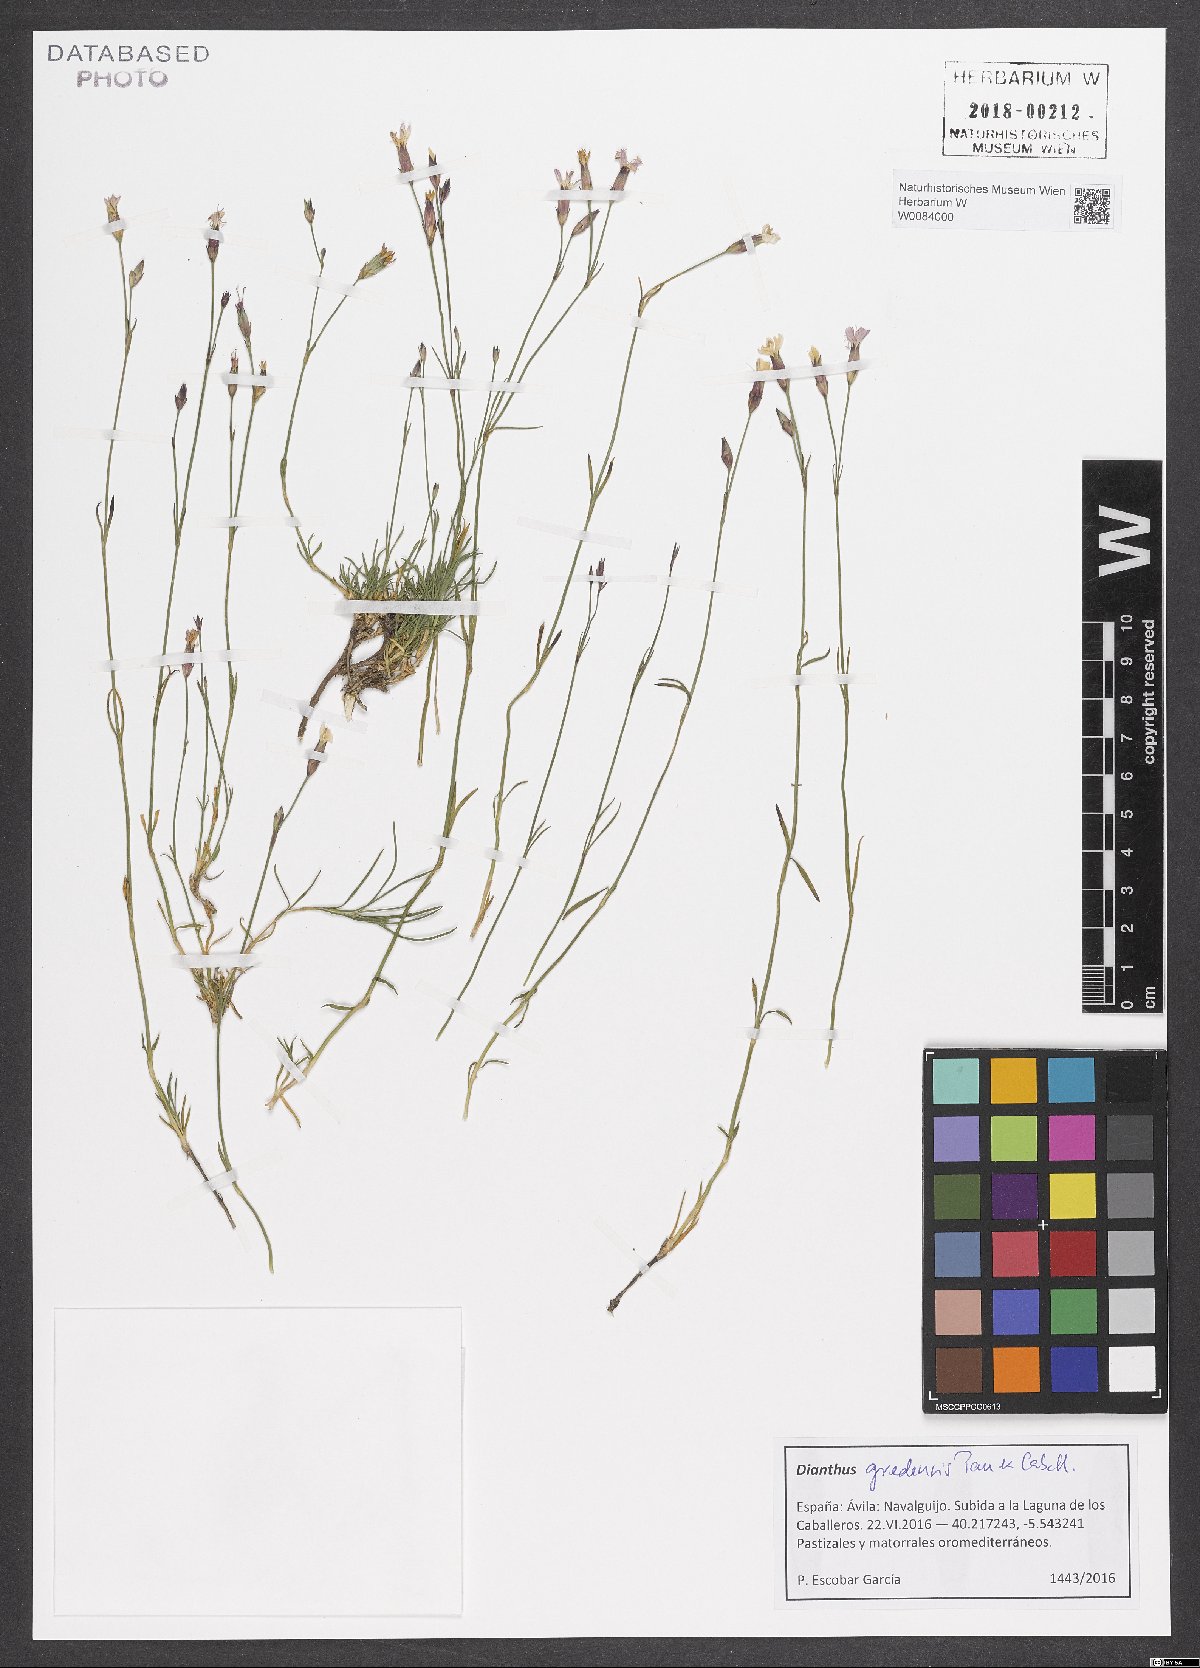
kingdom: Plantae
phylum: Tracheophyta
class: Magnoliopsida
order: Caryophyllales
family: Caryophyllaceae
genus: Dianthus
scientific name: Dianthus pungens
